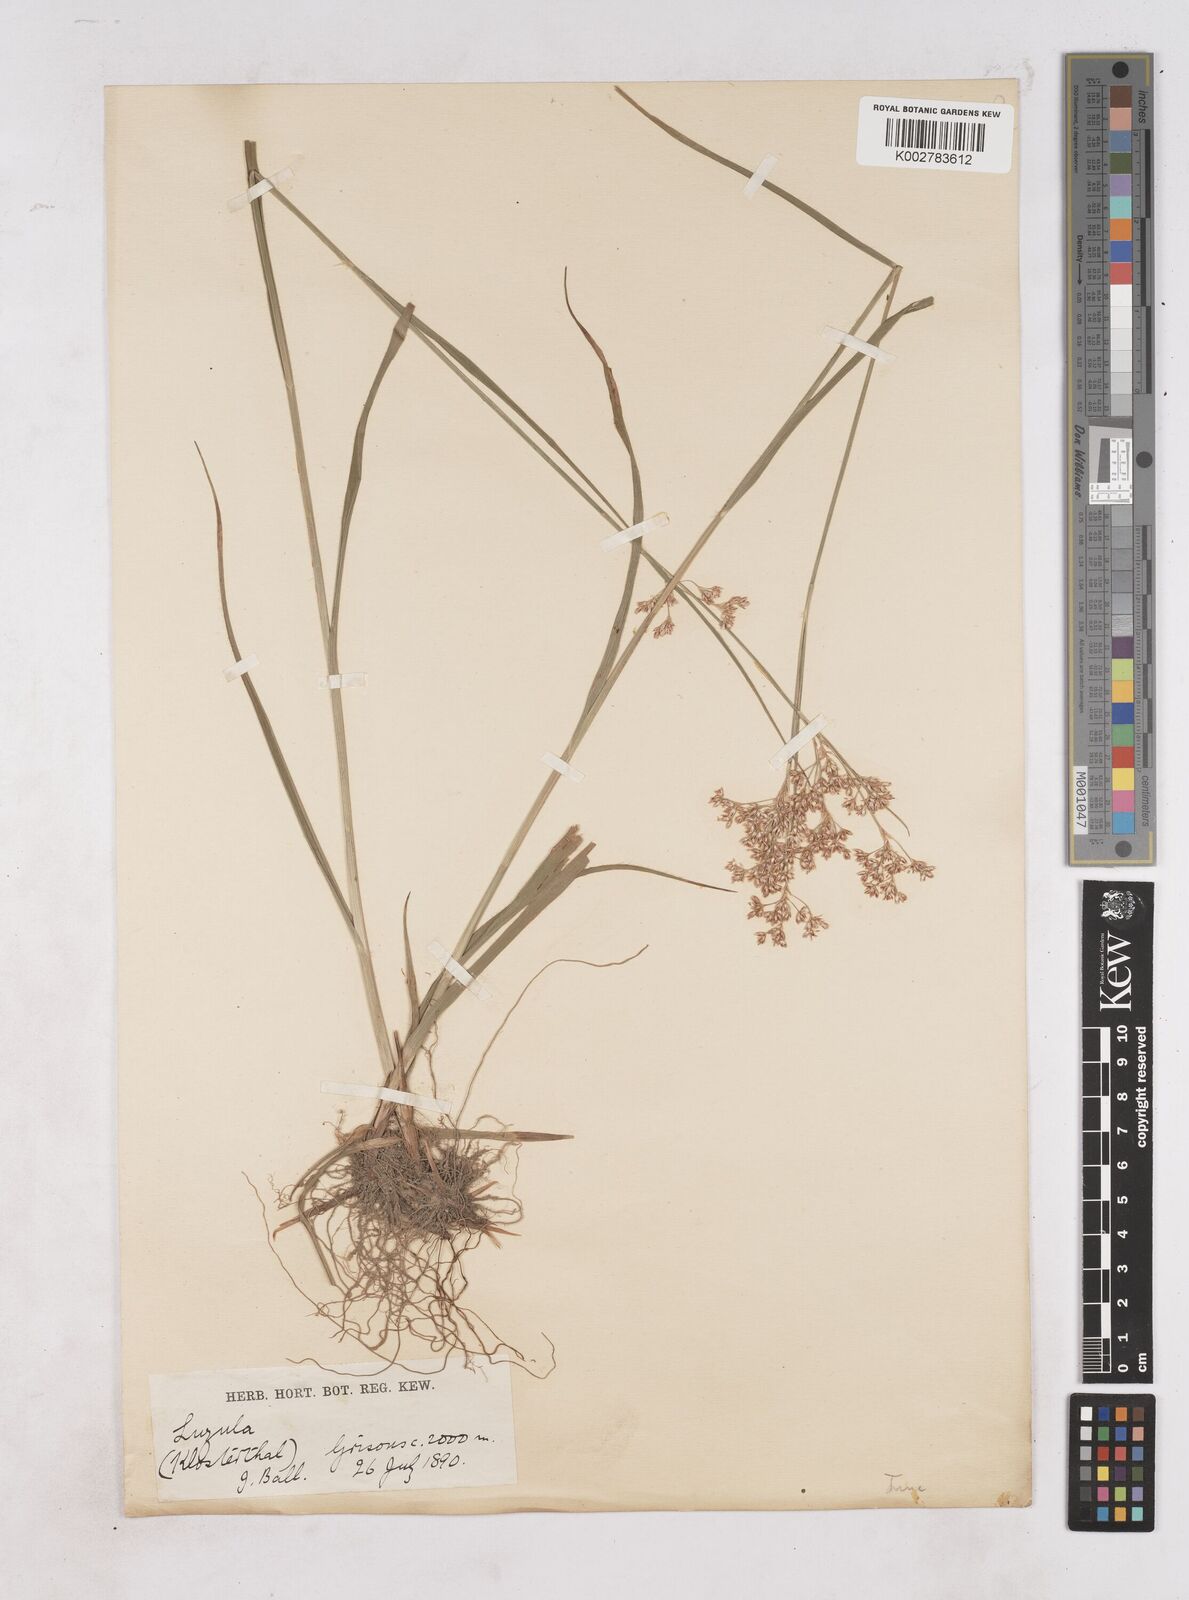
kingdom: Plantae
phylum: Tracheophyta
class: Liliopsida
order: Poales
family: Juncaceae
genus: Luzula
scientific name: Luzula
